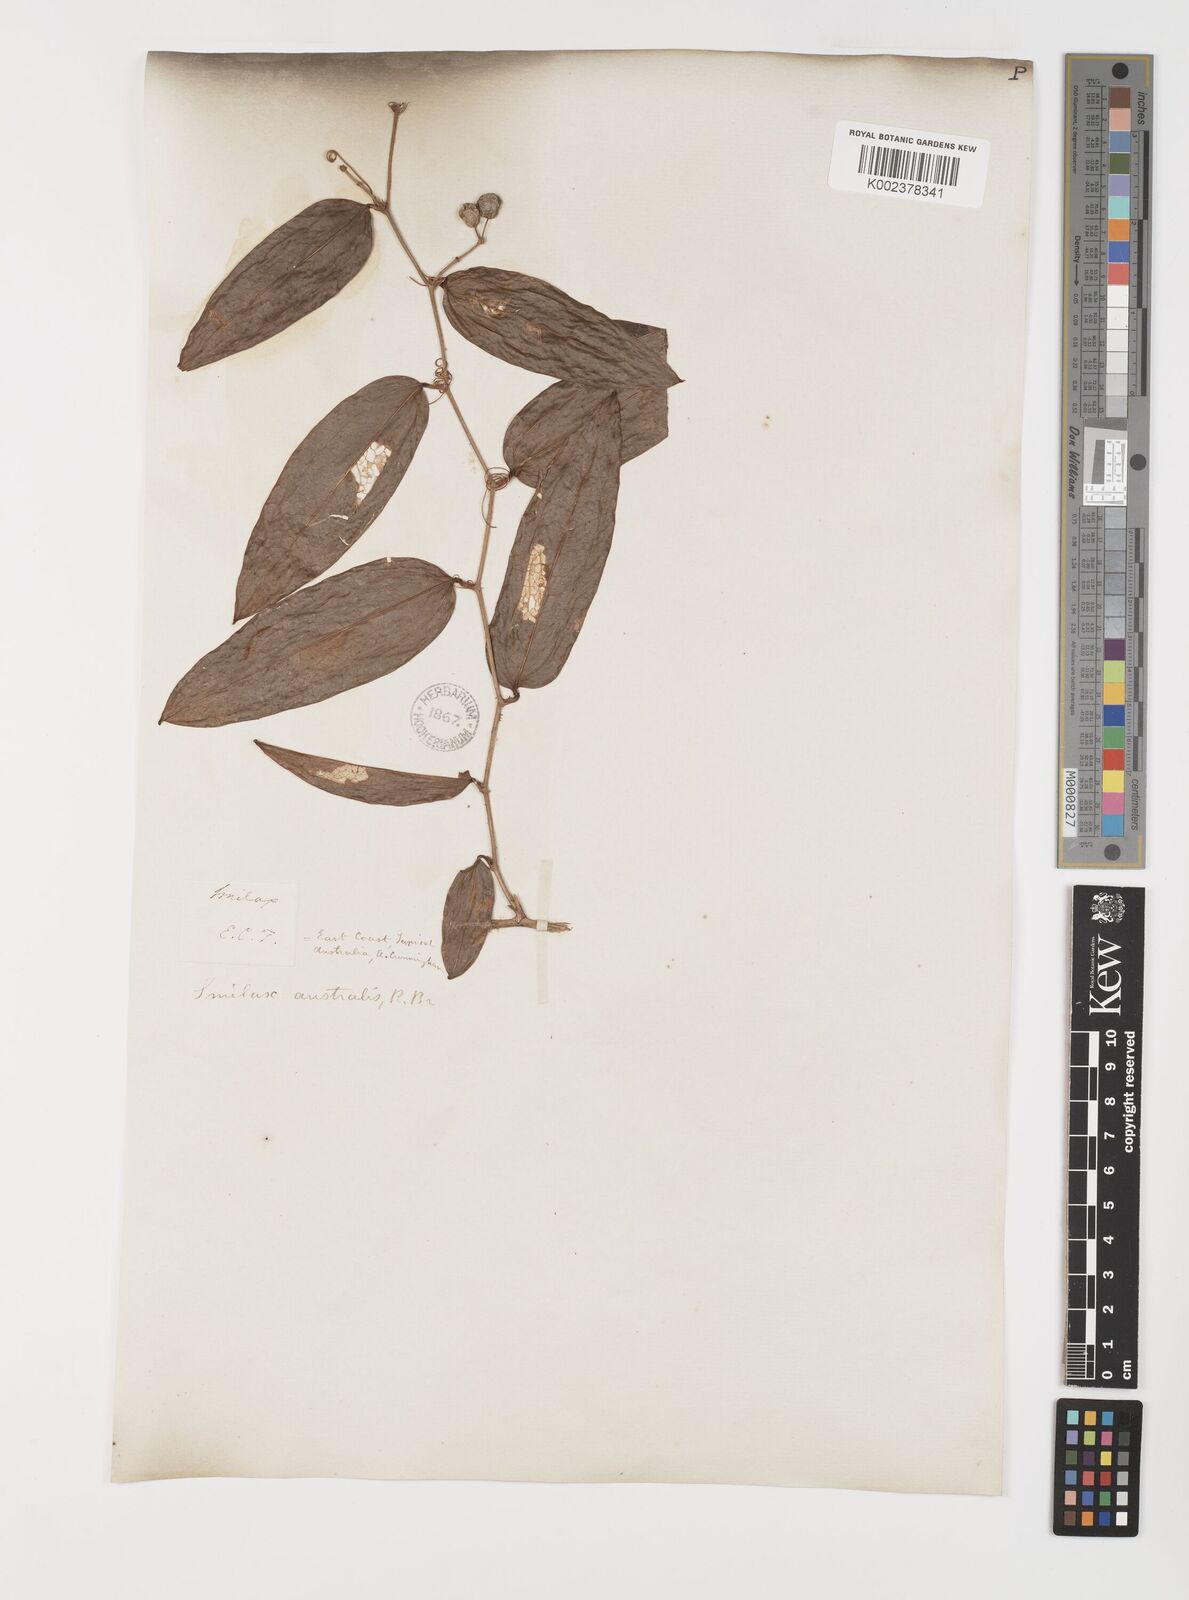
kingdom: Plantae
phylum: Tracheophyta
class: Liliopsida
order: Liliales
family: Smilacaceae
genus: Smilax
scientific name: Smilax australis
